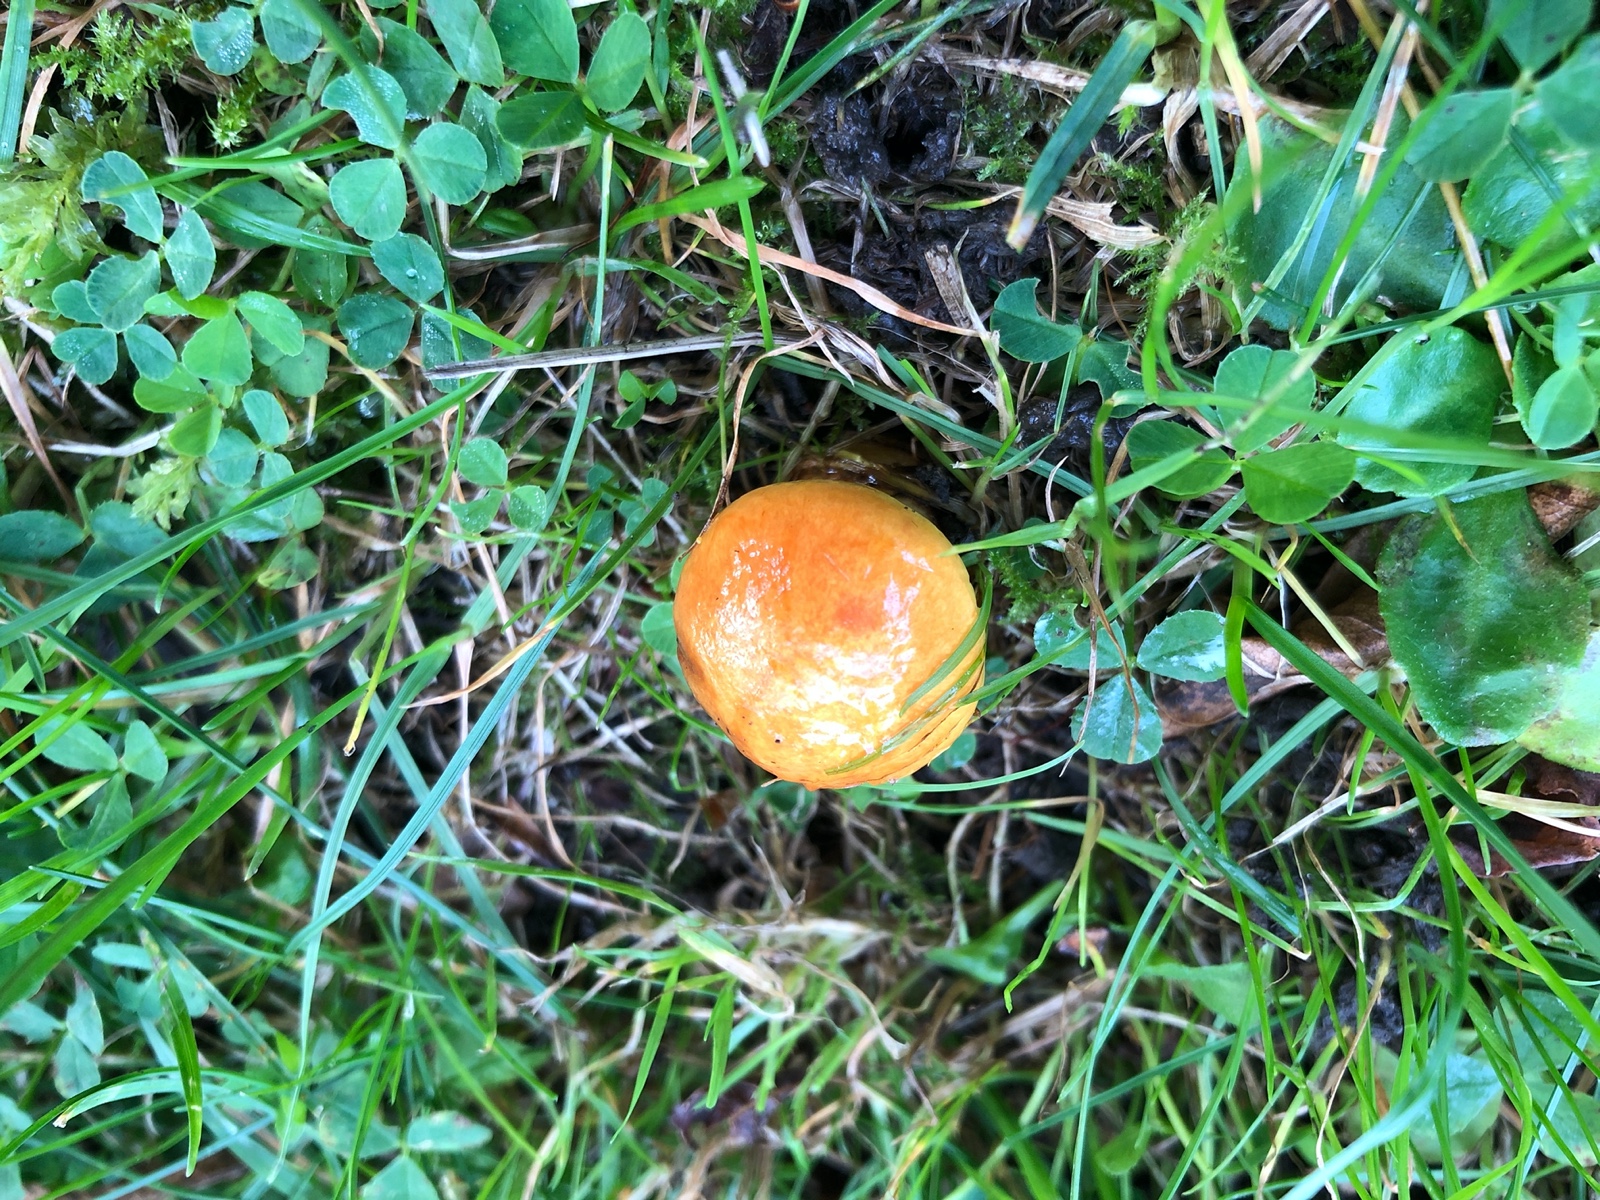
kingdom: Fungi
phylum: Basidiomycota
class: Agaricomycetes
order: Boletales
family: Suillaceae
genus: Suillus
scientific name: Suillus grevillei
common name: lærke-slimrørhat
